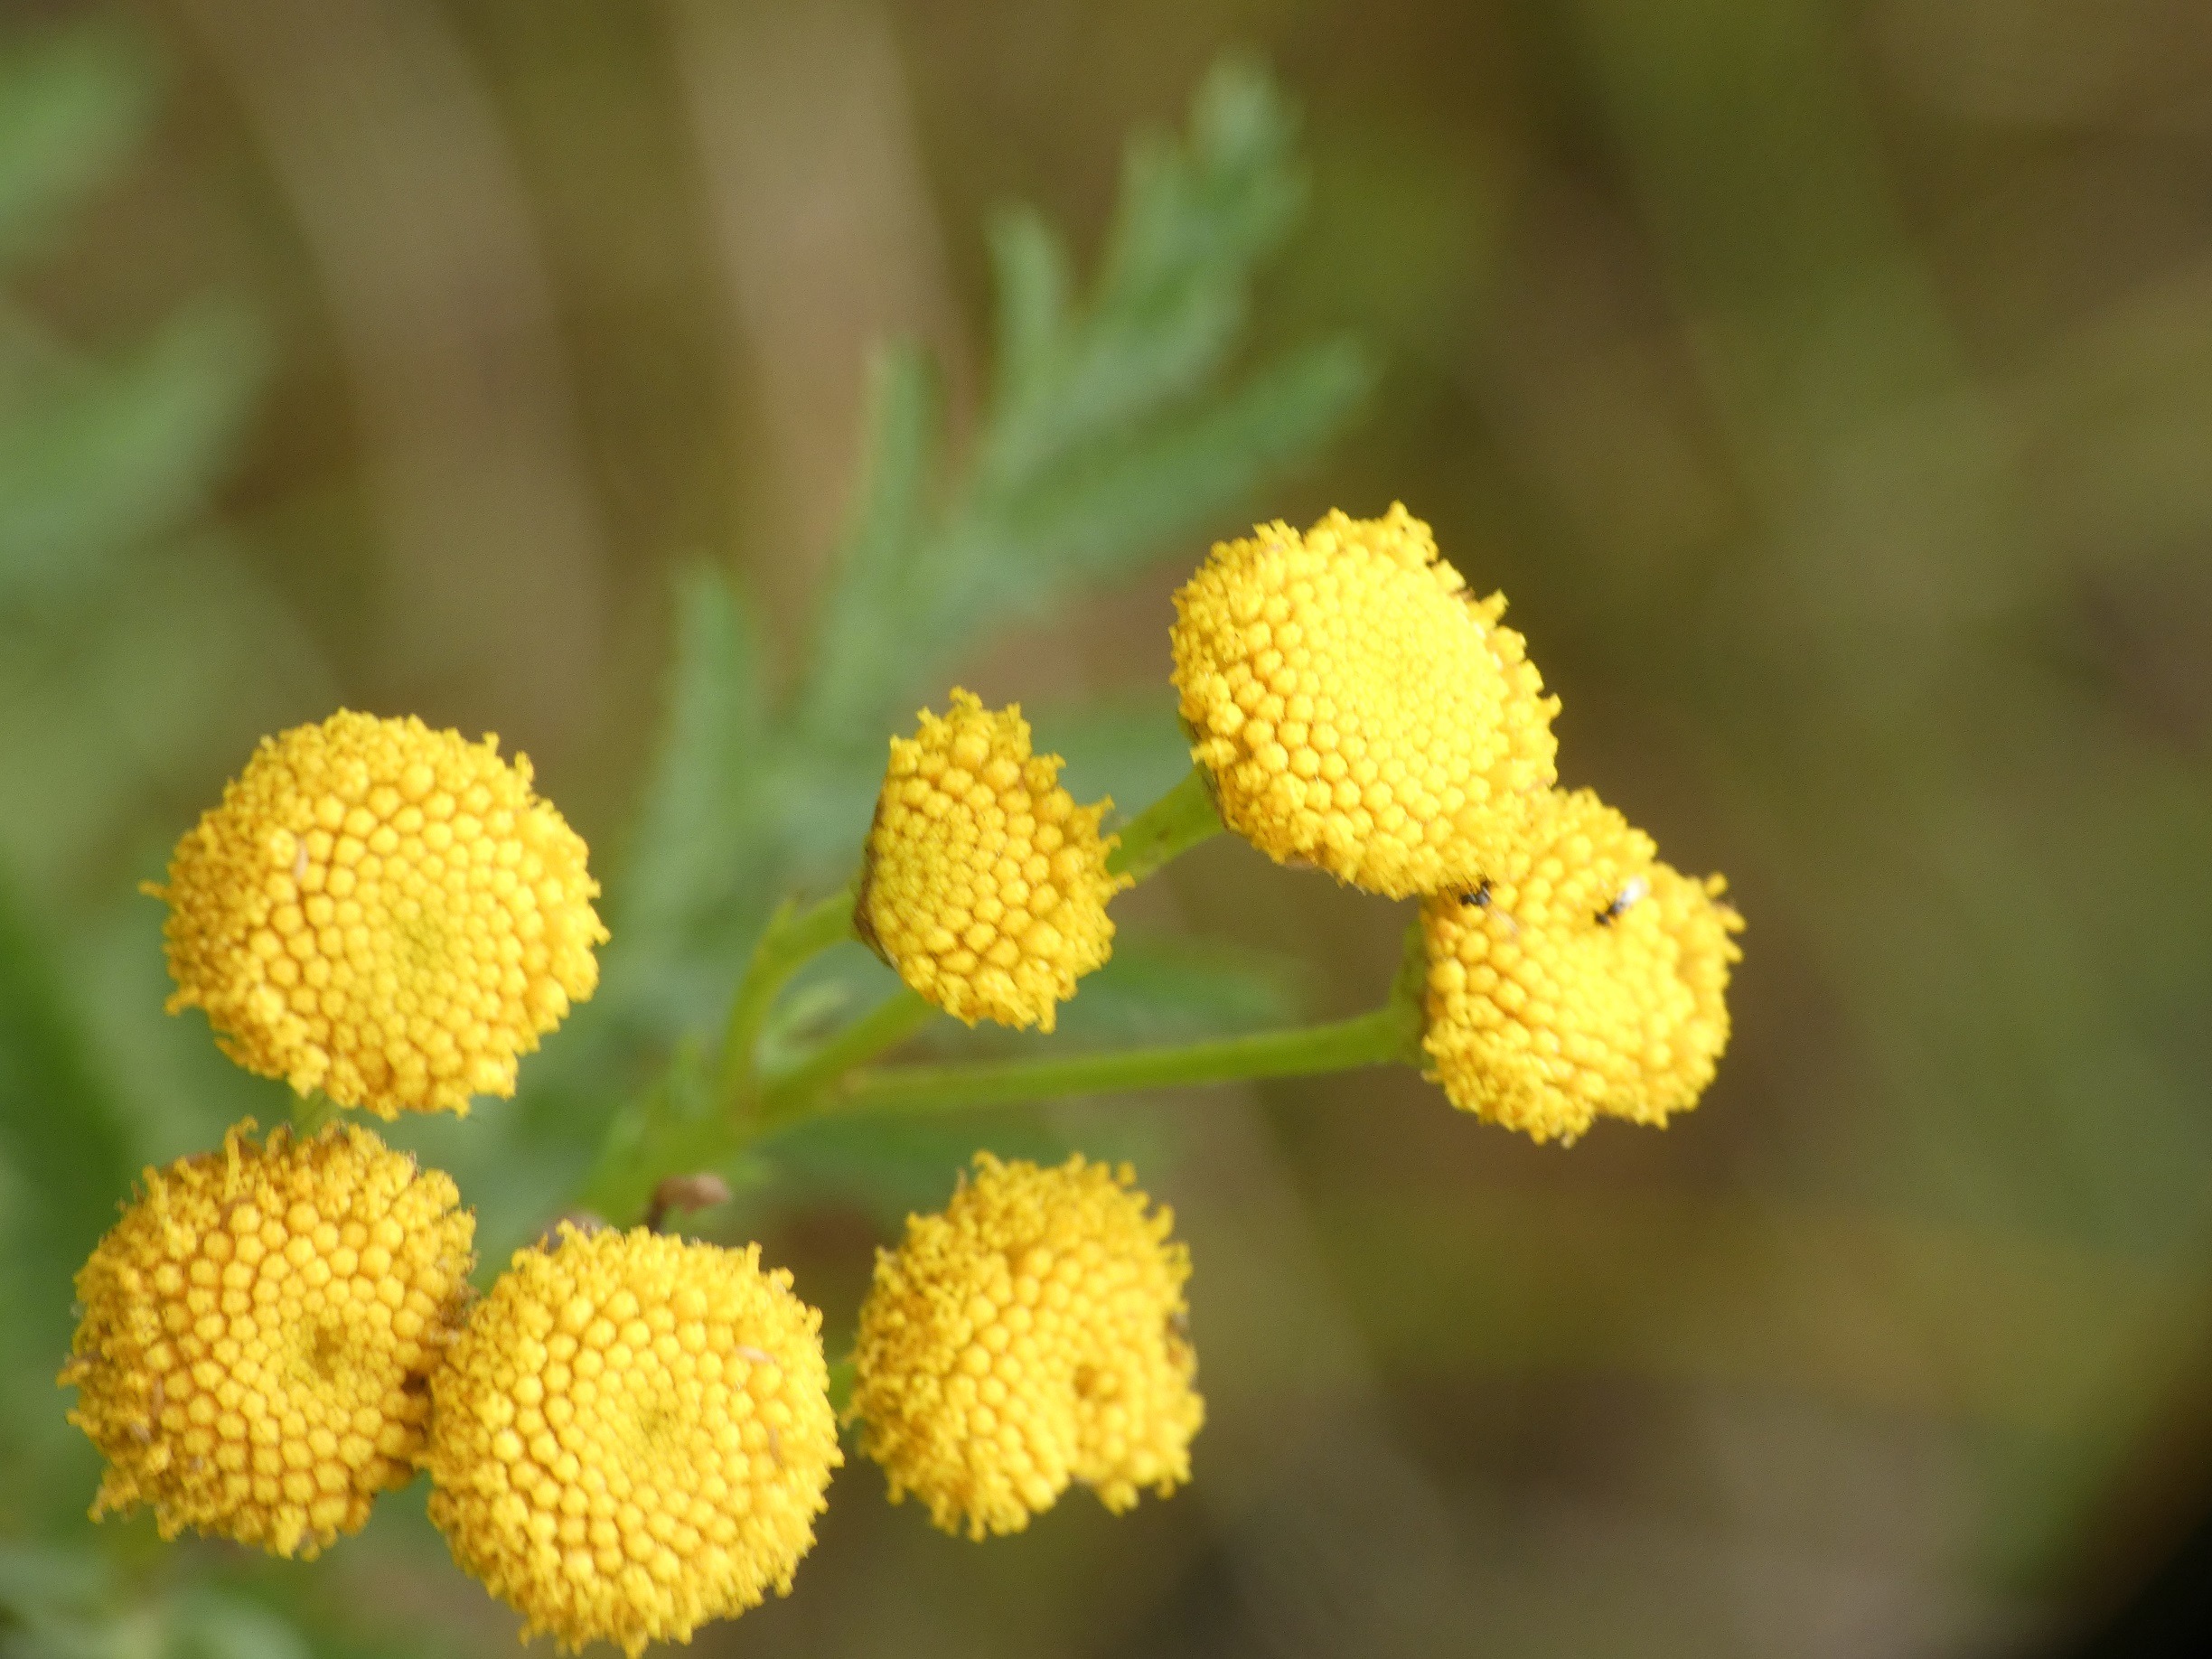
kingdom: Plantae
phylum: Tracheophyta
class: Magnoliopsida
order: Asterales
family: Asteraceae
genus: Tanacetum
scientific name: Tanacetum vulgare
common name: Rejnfan
